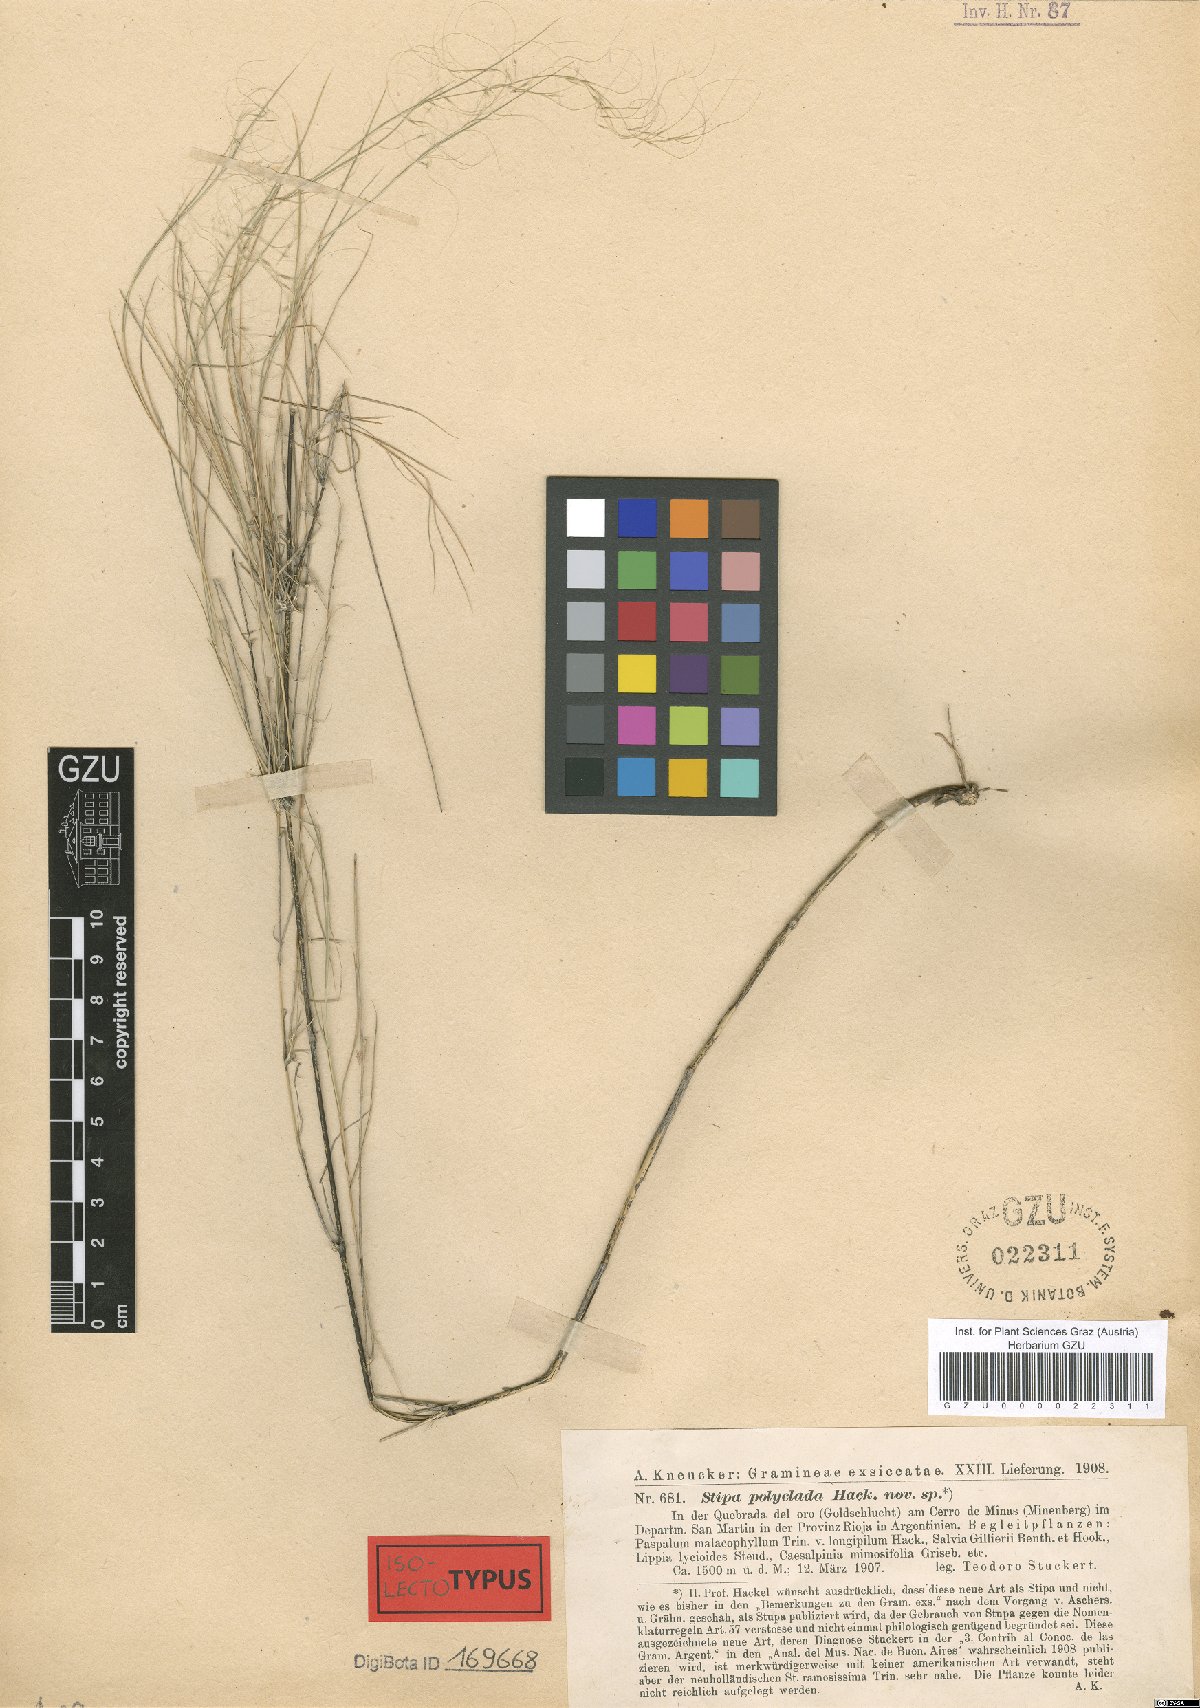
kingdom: Plantae
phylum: Tracheophyta
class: Liliopsida
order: Poales
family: Poaceae
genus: Stipa
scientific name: Stipa polyclada
